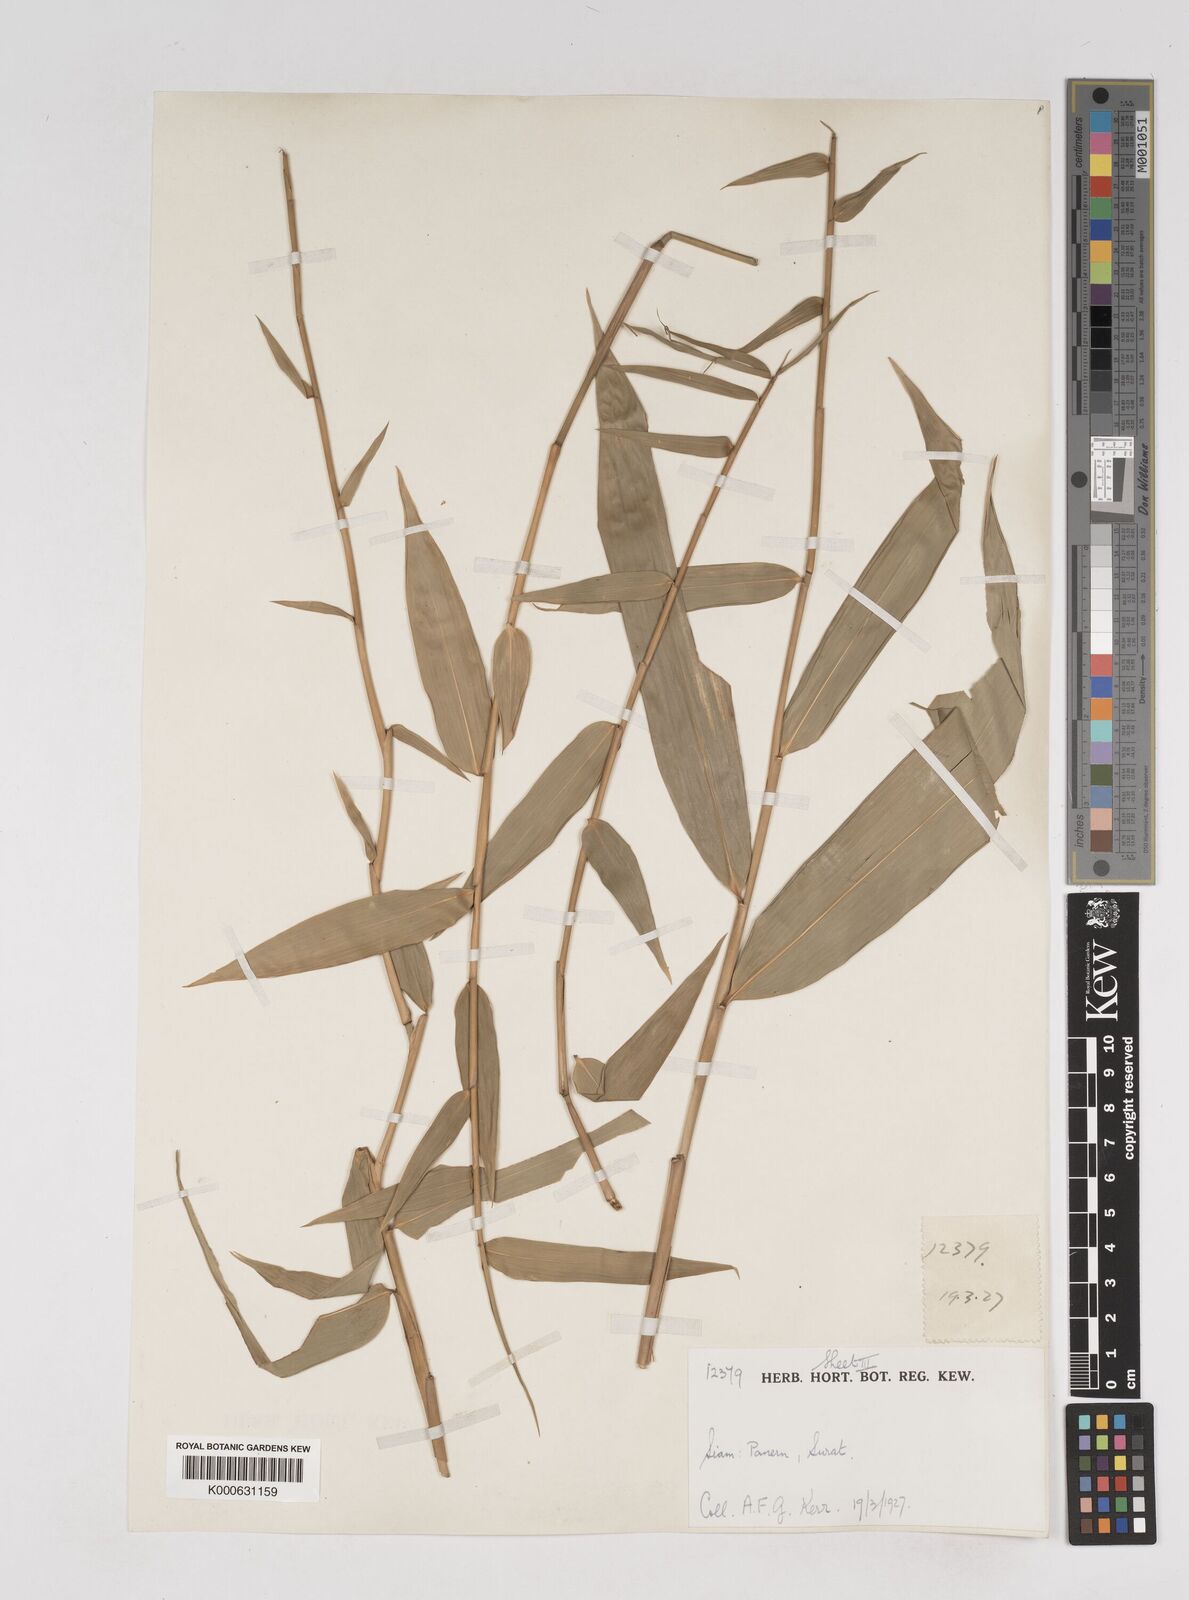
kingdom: Plantae
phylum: Tracheophyta
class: Liliopsida
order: Poales
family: Poaceae
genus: Gigantochloa
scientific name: Gigantochloa
